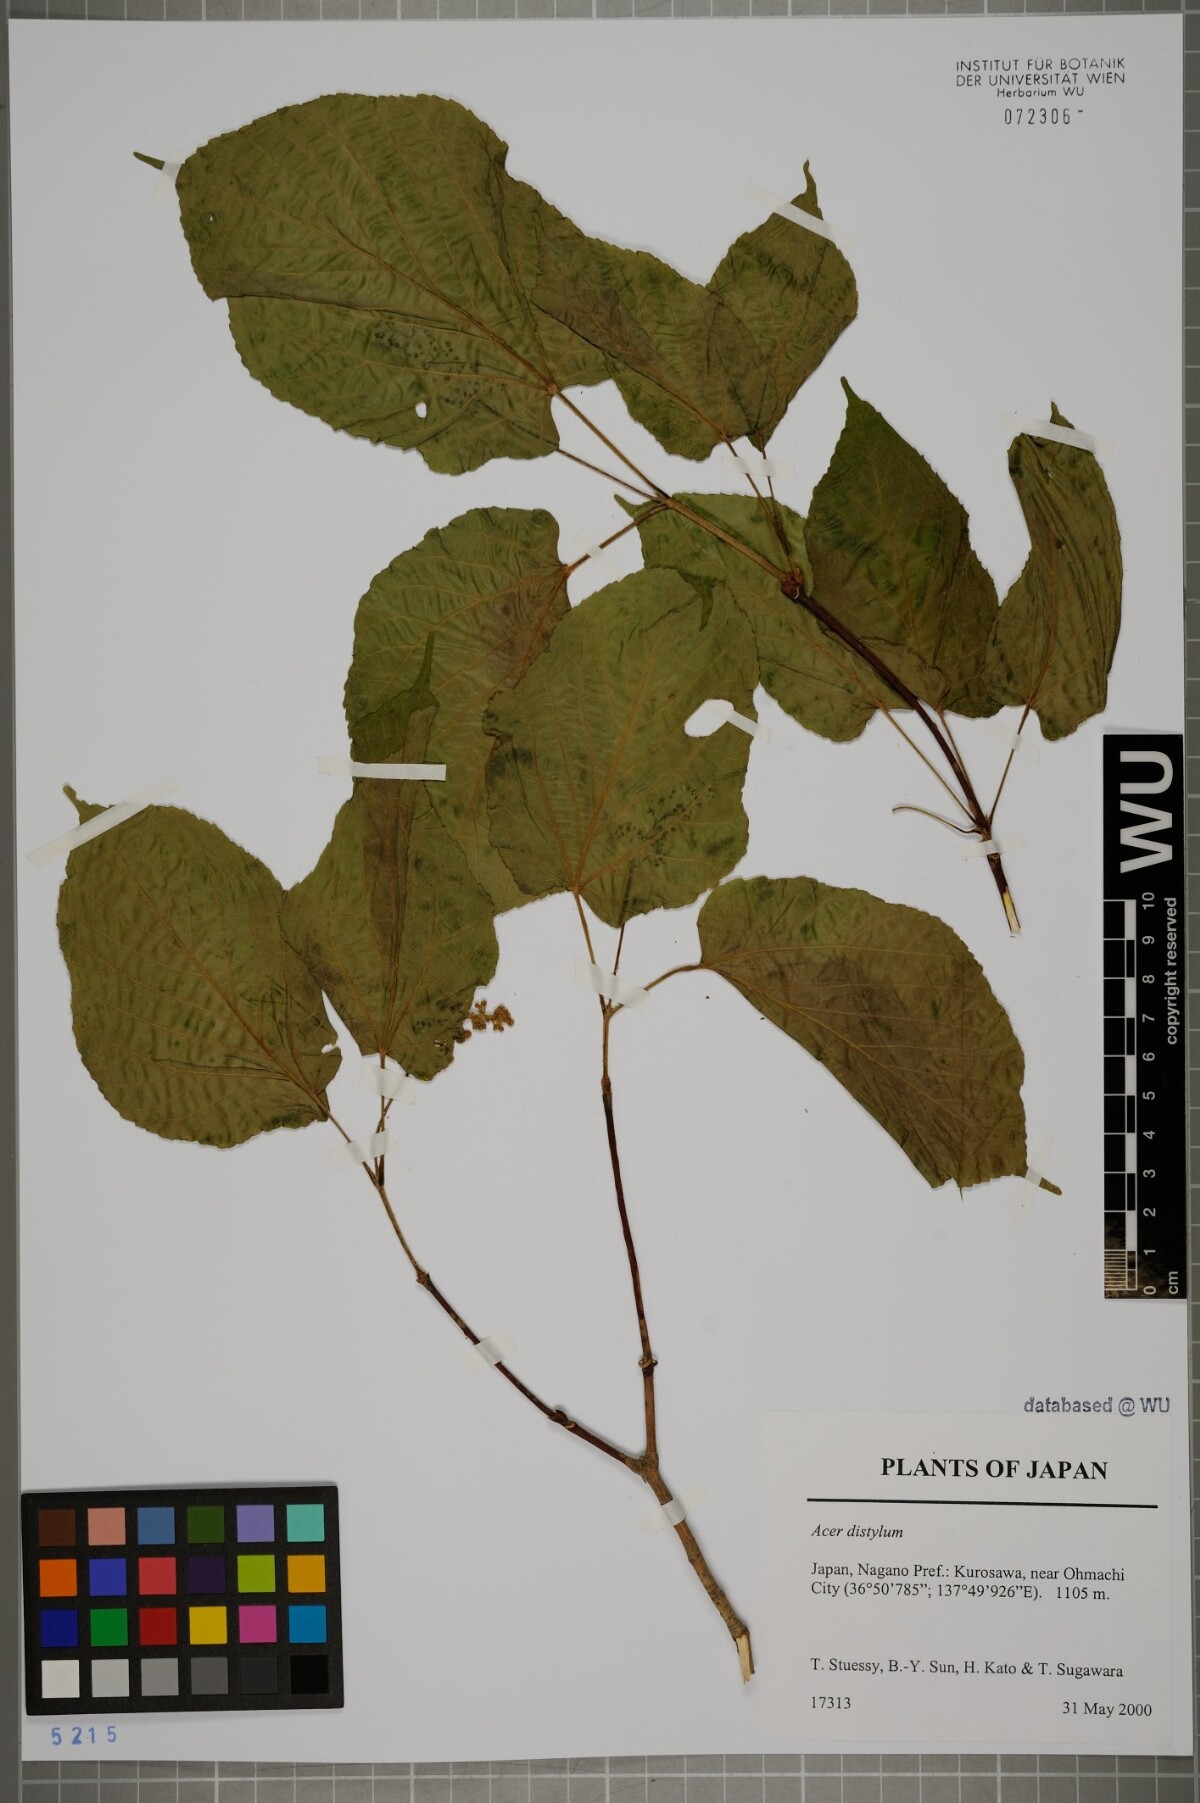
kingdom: Plantae
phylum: Tracheophyta
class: Magnoliopsida
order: Sapindales
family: Sapindaceae
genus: Acer
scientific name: Acer distylum
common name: Lime-leaved maple
